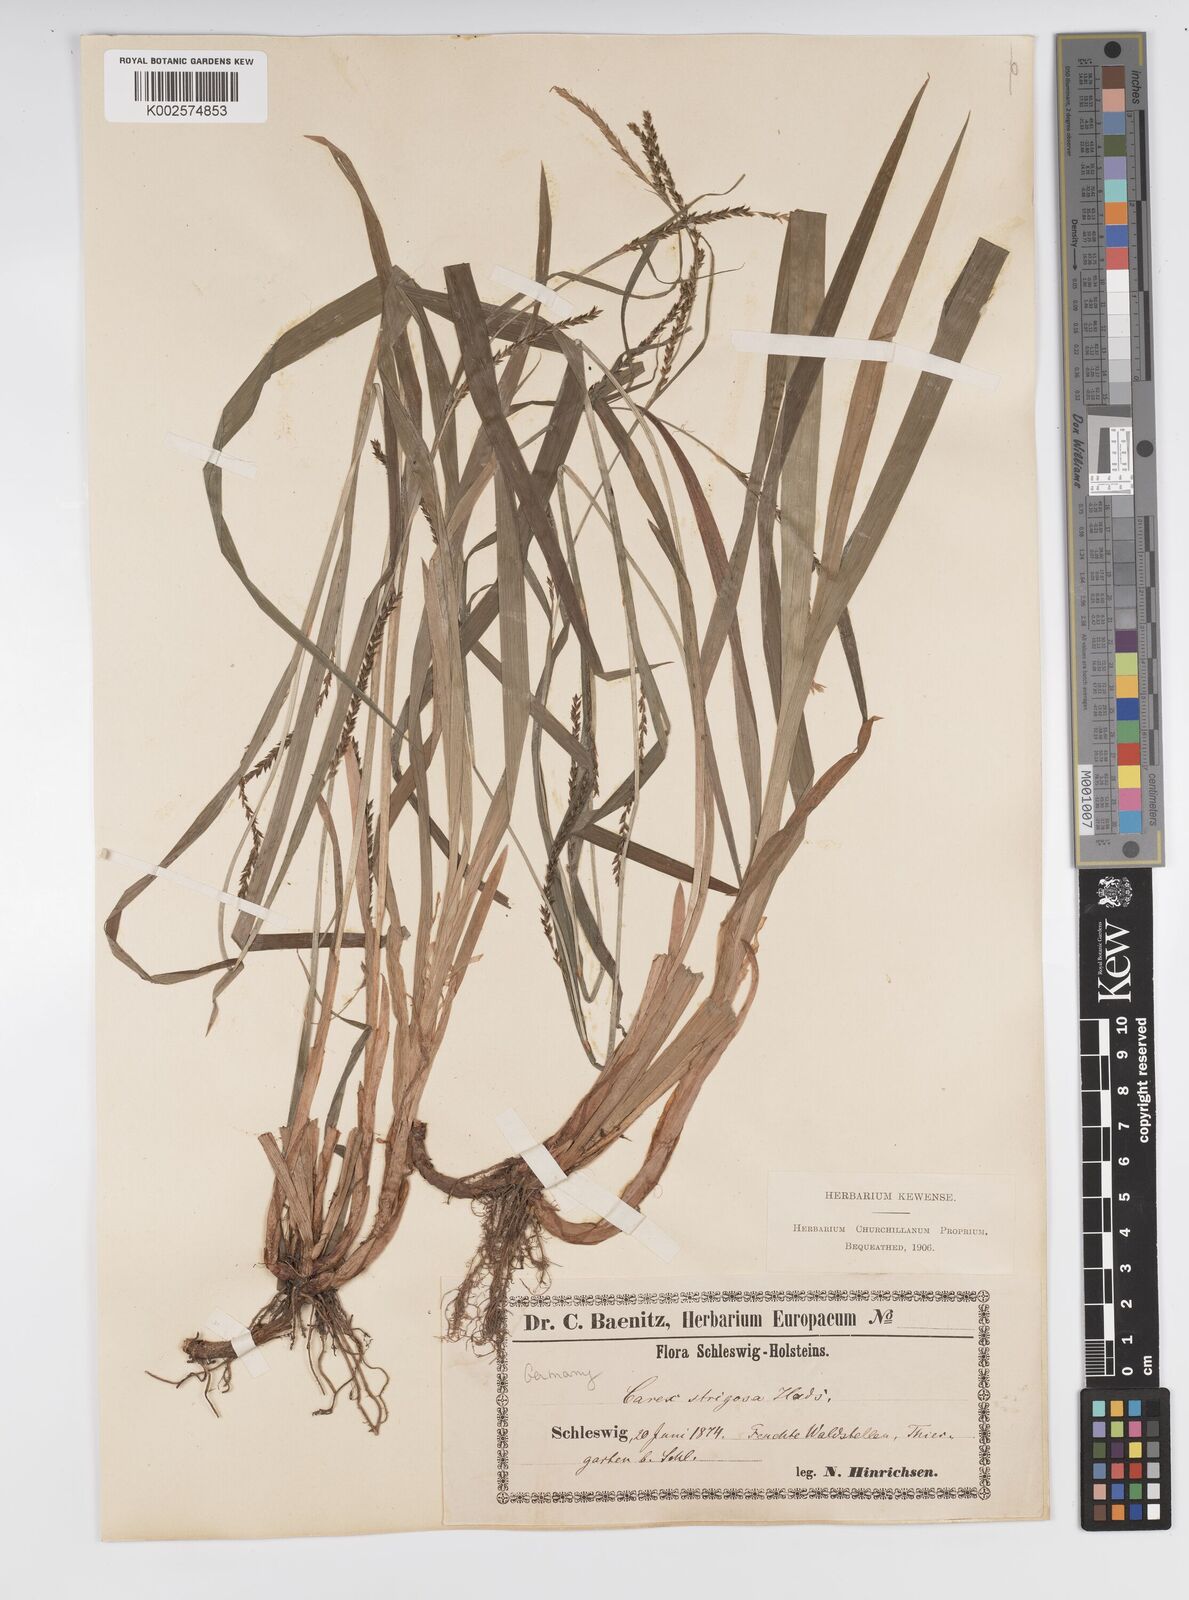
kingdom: Plantae
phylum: Tracheophyta
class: Liliopsida
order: Poales
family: Cyperaceae
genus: Carex
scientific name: Carex strigosa
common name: Thin-spiked wood-sedge
